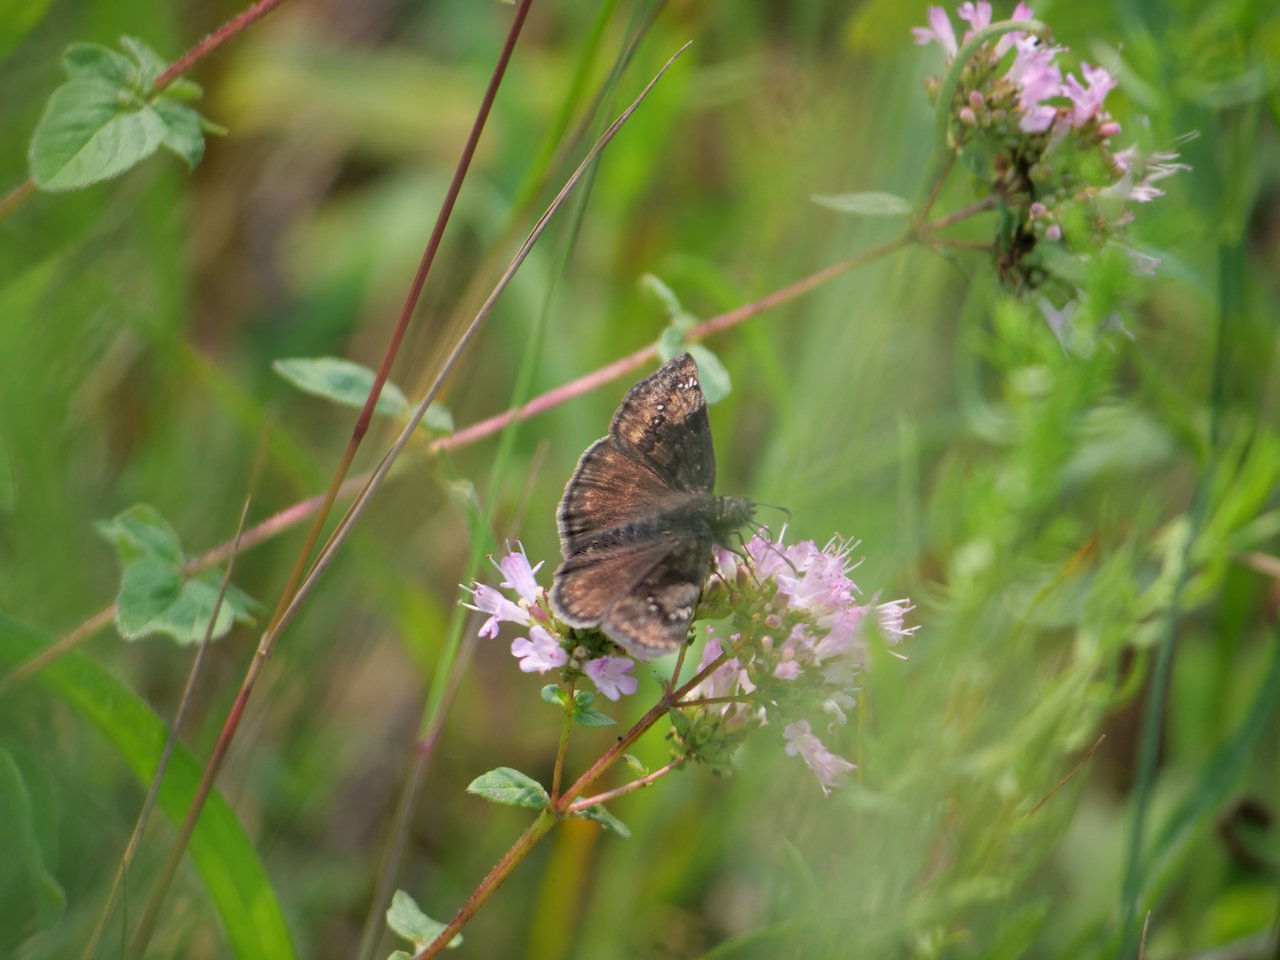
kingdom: Animalia
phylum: Arthropoda
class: Insecta
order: Lepidoptera
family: Hesperiidae
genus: Gesta
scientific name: Gesta
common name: Wild Indigo Duskywing
